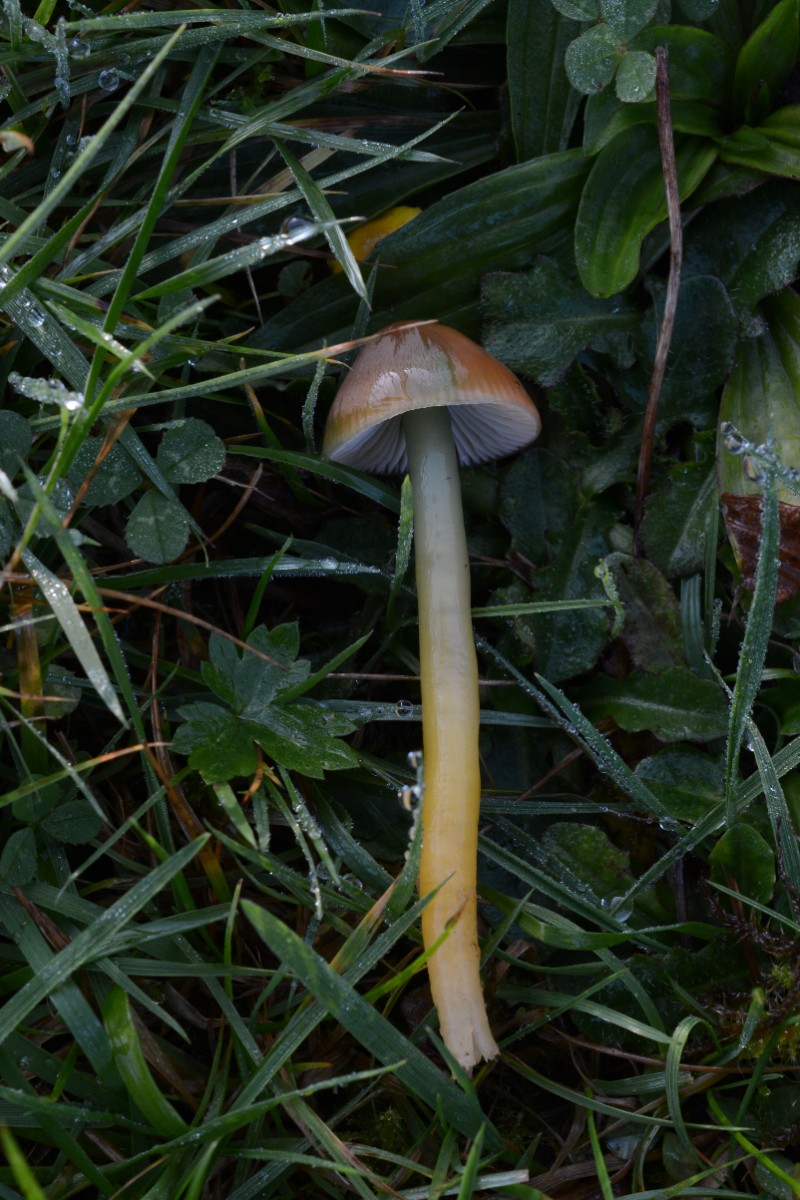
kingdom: Fungi
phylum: Basidiomycota
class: Agaricomycetes
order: Agaricales
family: Hygrophoraceae
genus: Gliophorus
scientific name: Gliophorus psittacinus
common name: papegøje-vokshat
